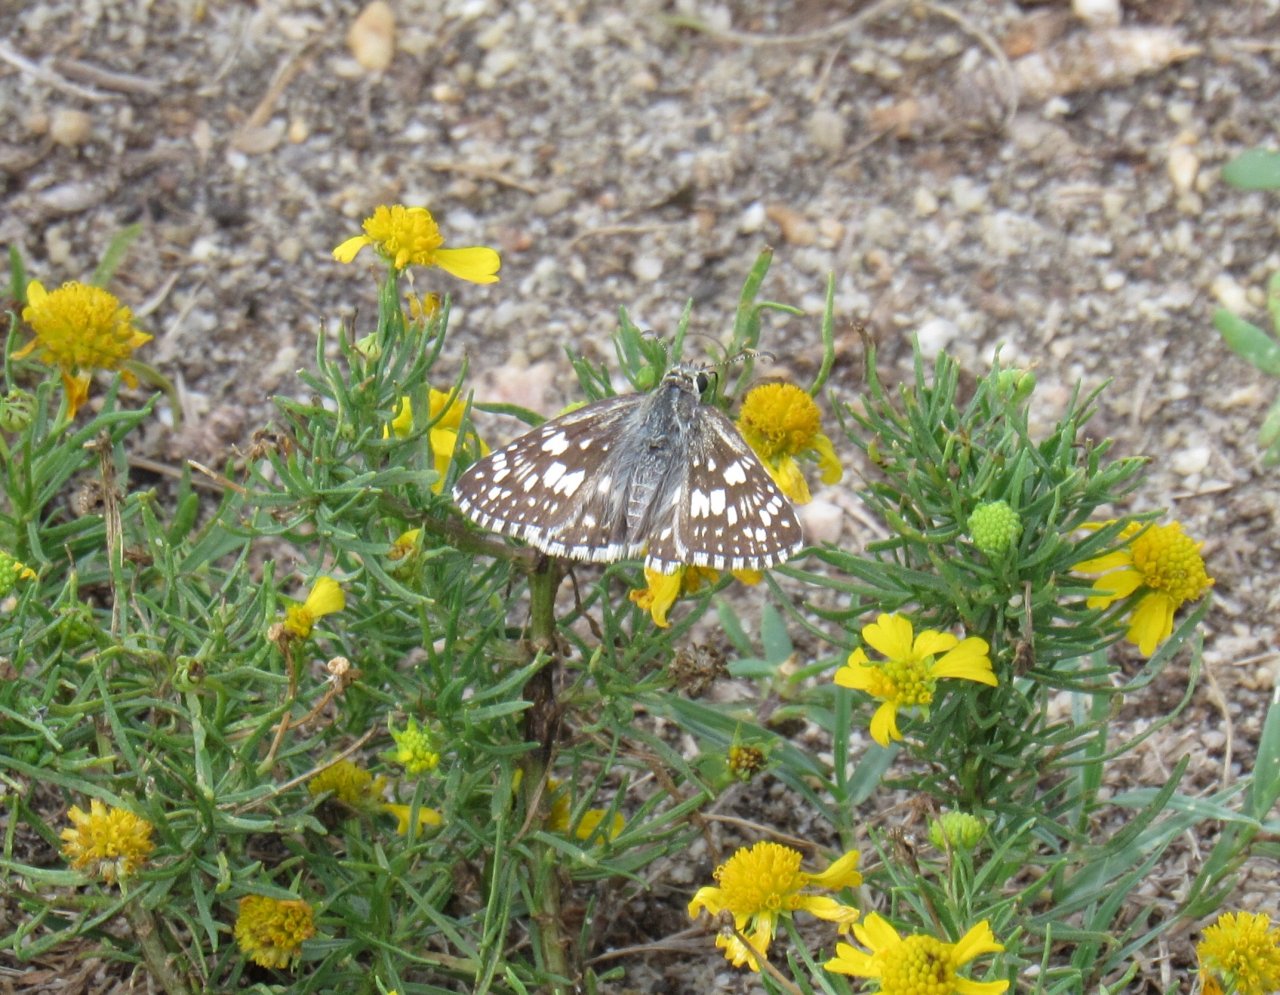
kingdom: Animalia
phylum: Arthropoda
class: Insecta
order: Lepidoptera
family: Hesperiidae
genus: Pyrgus
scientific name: Pyrgus communis
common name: Common Checkered-Skipper
